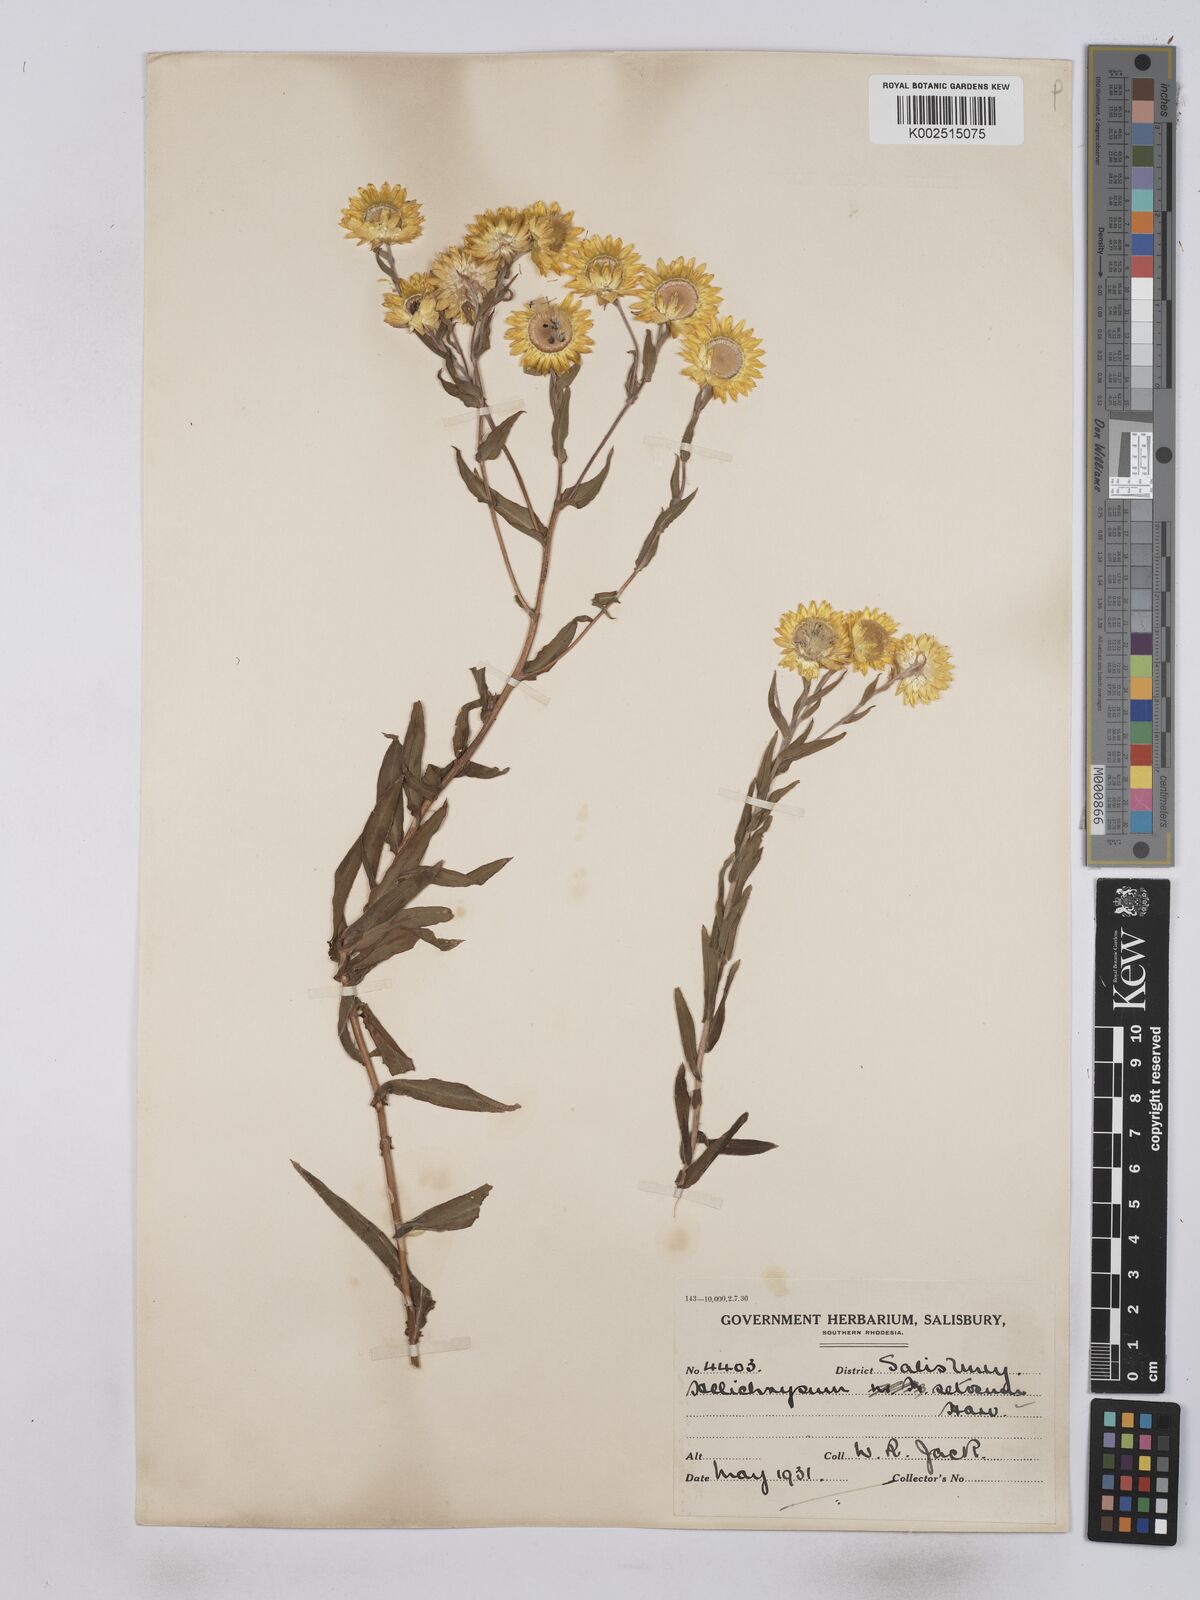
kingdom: Plantae
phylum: Tracheophyta
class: Magnoliopsida
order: Asterales
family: Asteraceae
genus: Helichrysum
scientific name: Helichrysum setosum
